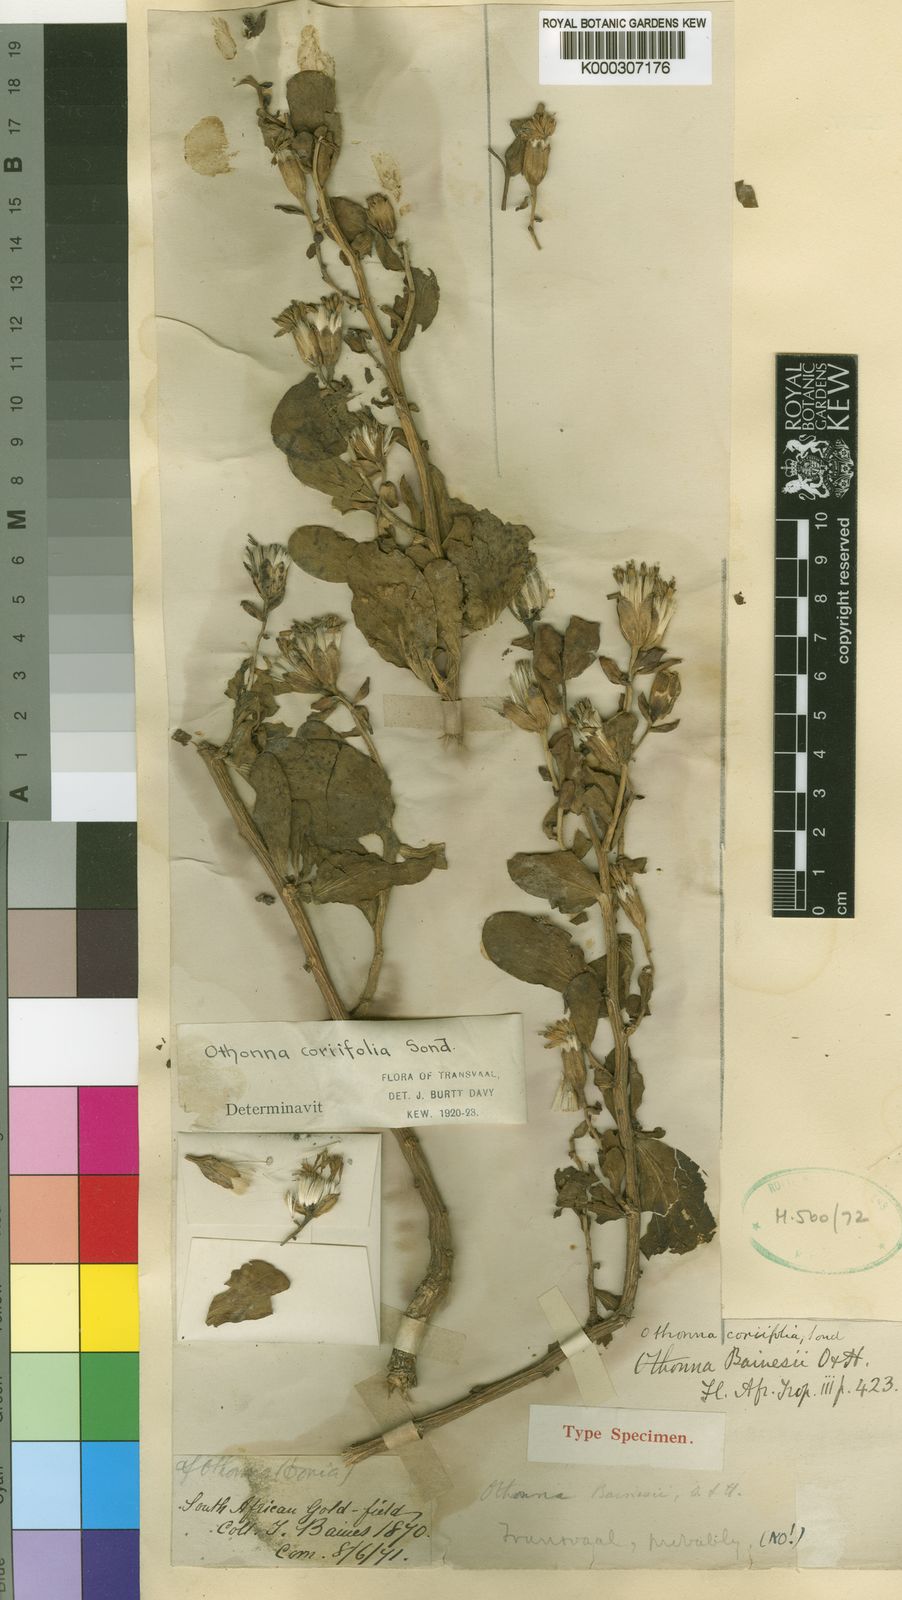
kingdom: Plantae
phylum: Tracheophyta
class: Magnoliopsida
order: Asterales
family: Asteraceae
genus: Lopholaena
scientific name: Lopholaena coriifolia
